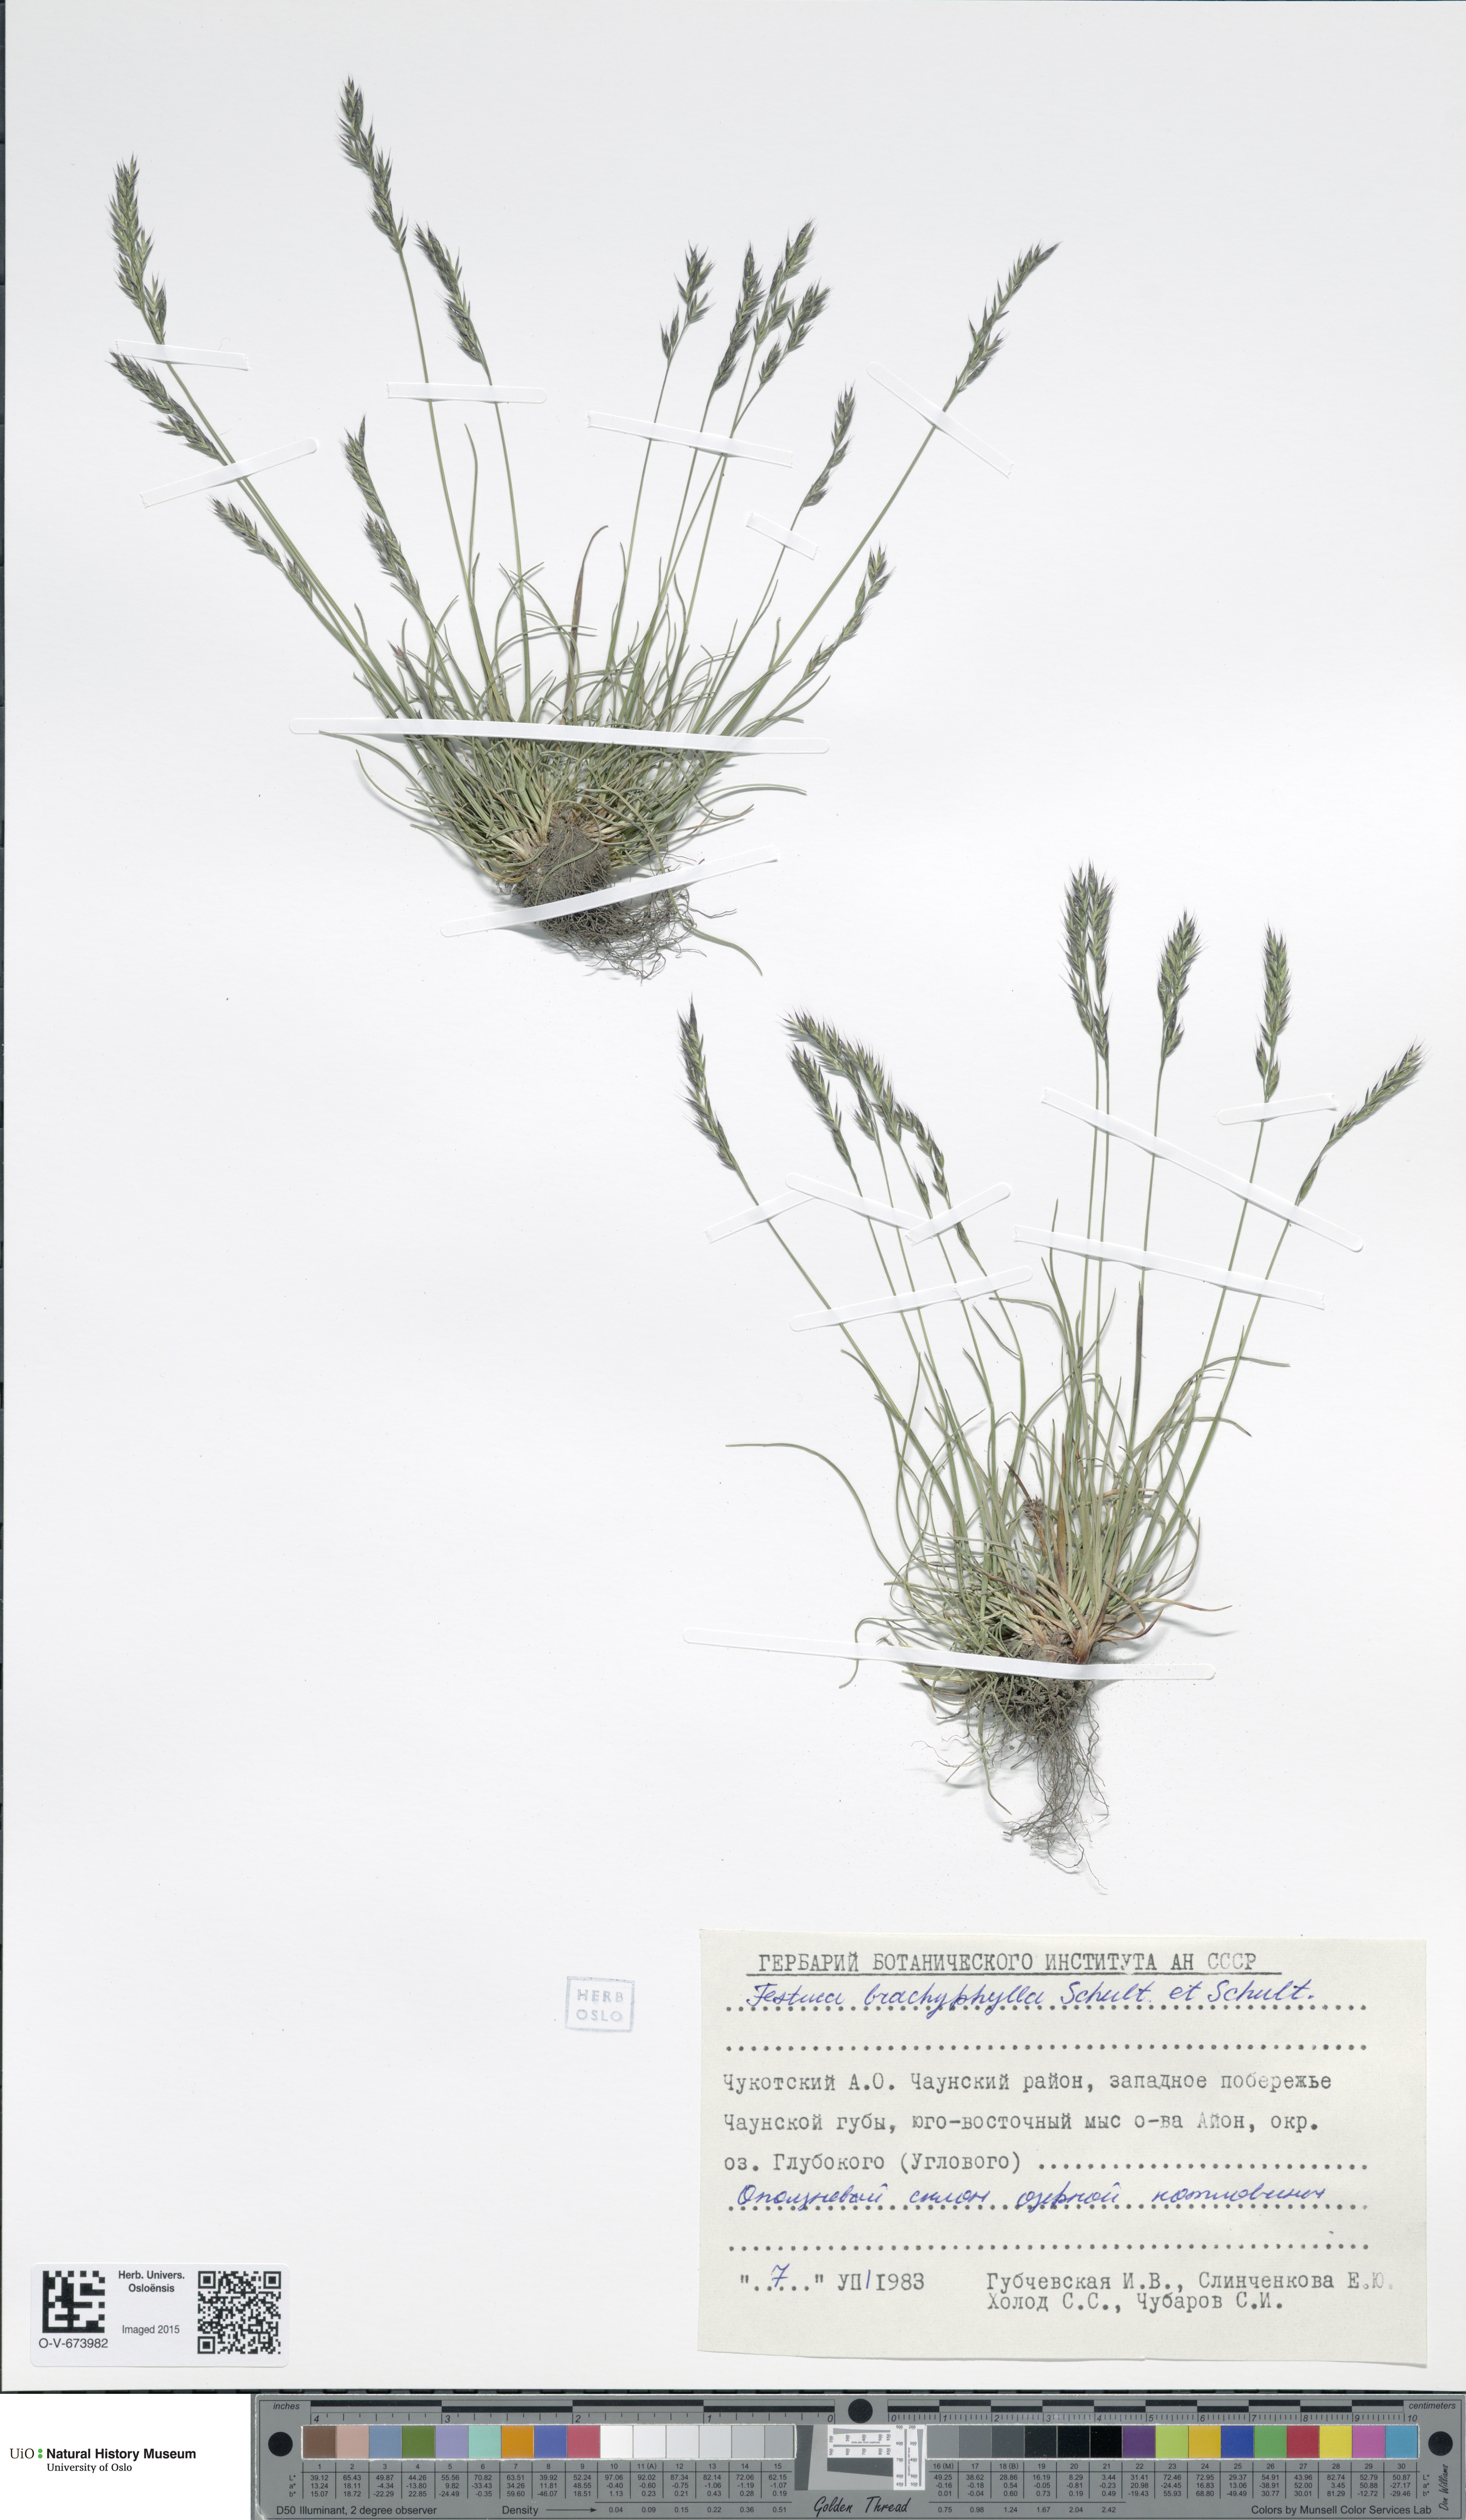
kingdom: Plantae
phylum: Tracheophyta
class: Liliopsida
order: Poales
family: Poaceae
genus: Festuca
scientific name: Festuca brachyphylla
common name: Alpine fescue
